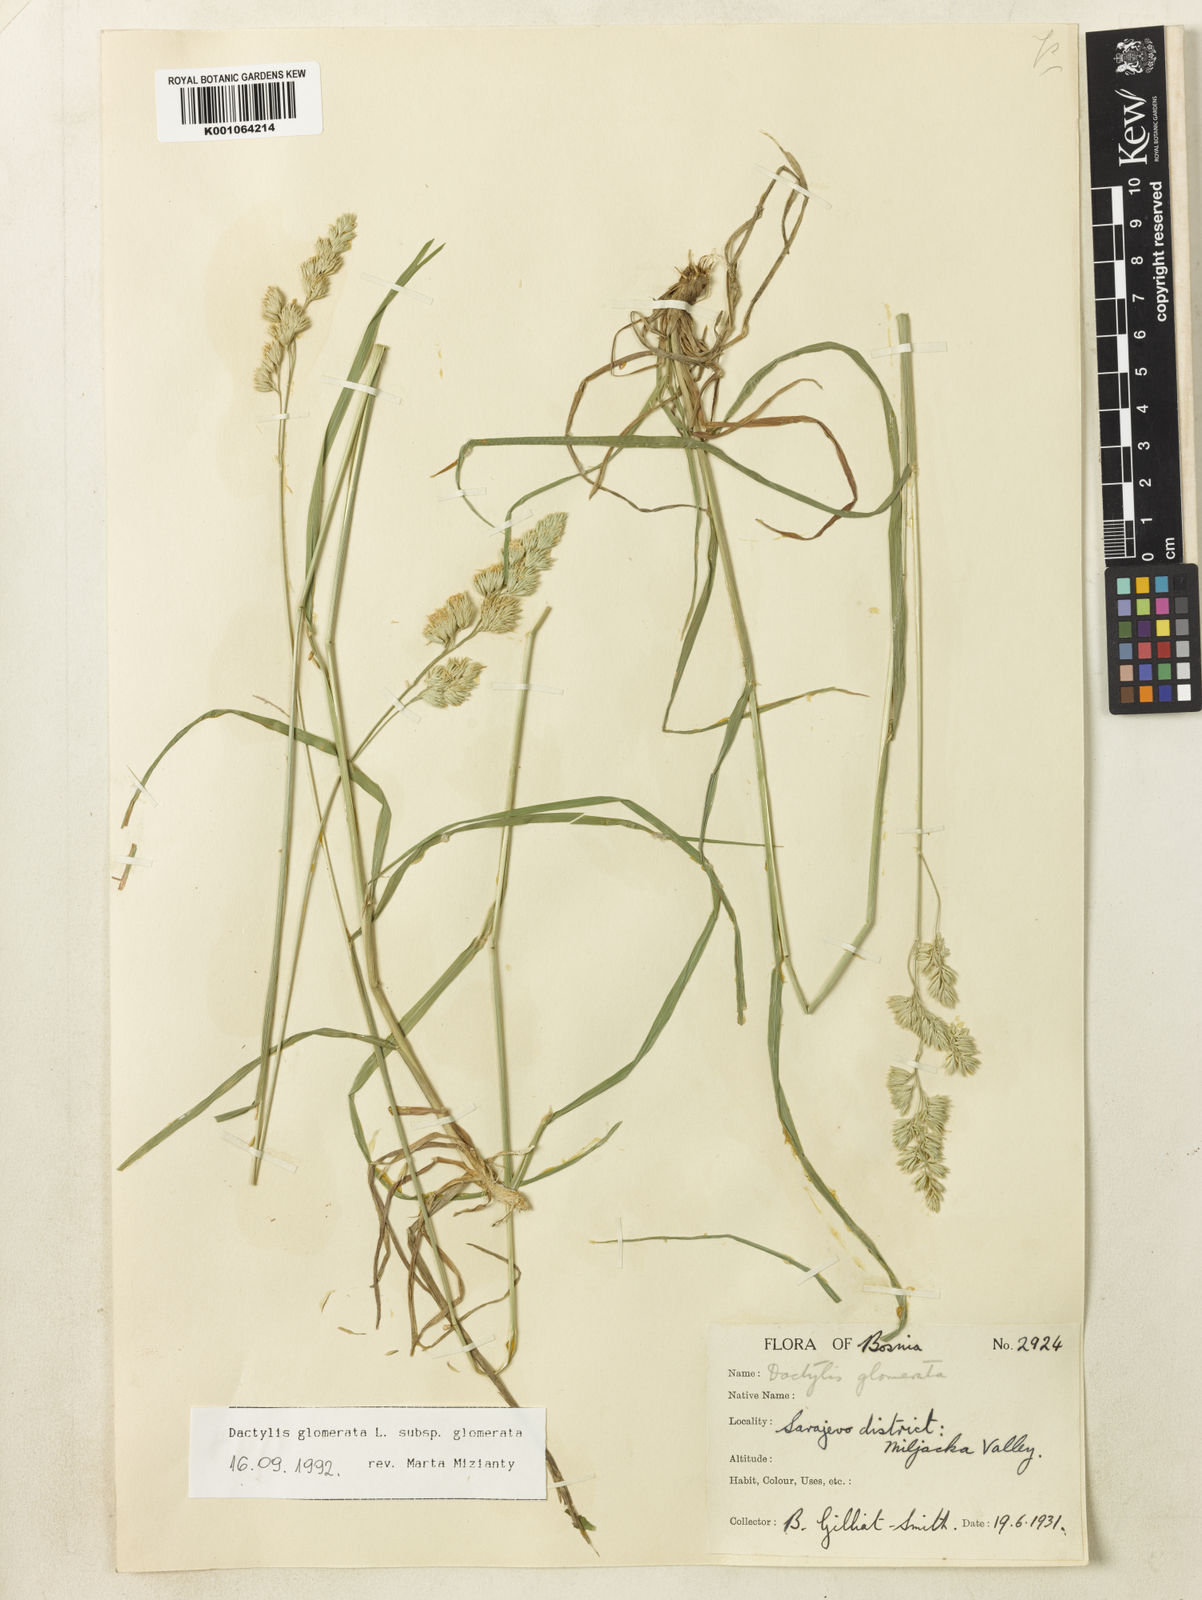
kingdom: Plantae
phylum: Tracheophyta
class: Liliopsida
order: Poales
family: Poaceae
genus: Dactylis
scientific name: Dactylis glomerata
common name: Orchardgrass
